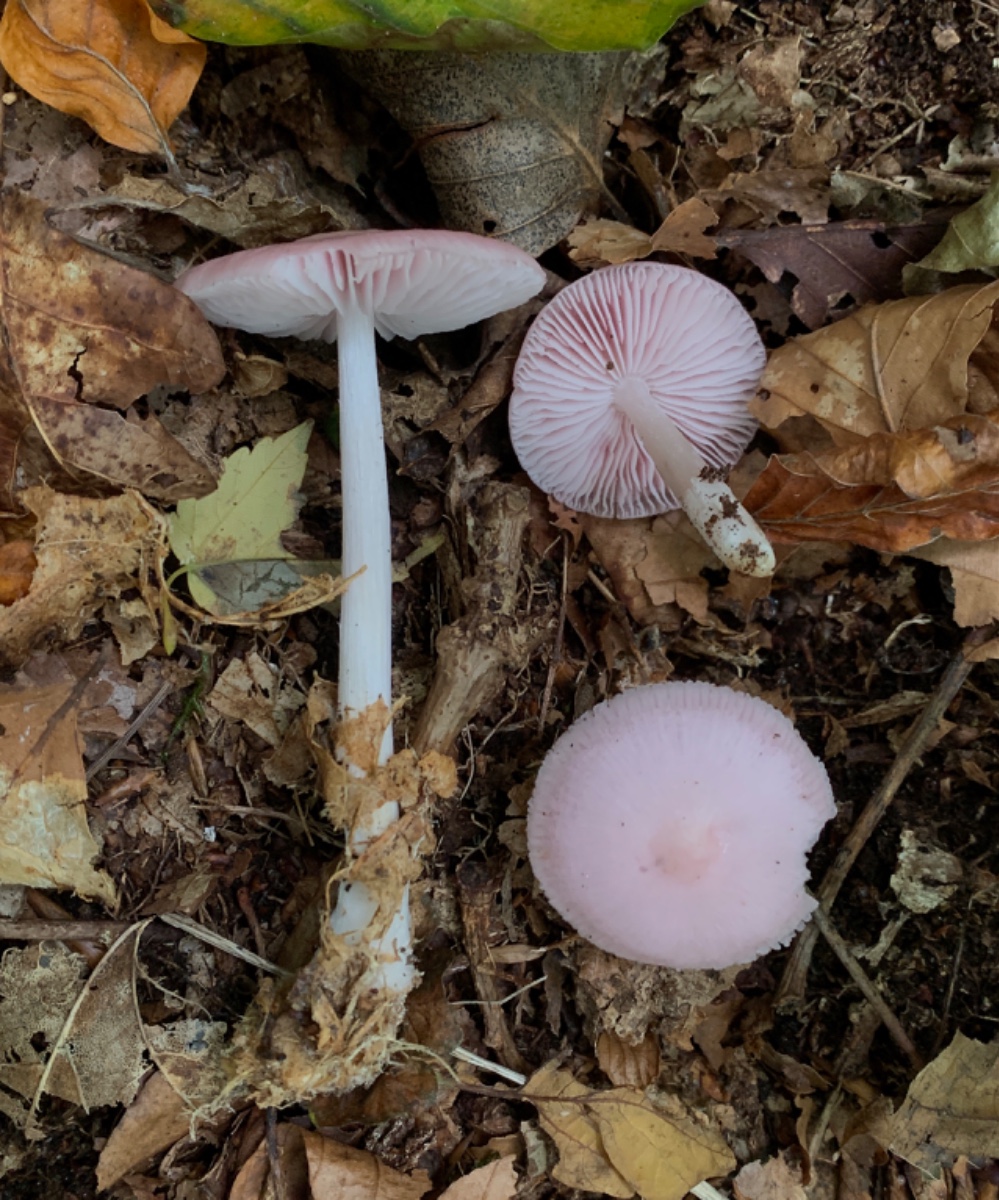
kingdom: Fungi
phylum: Basidiomycota
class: Agaricomycetes
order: Agaricales
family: Mycenaceae
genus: Mycena
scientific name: Mycena rosea
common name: rosa huesvamp
